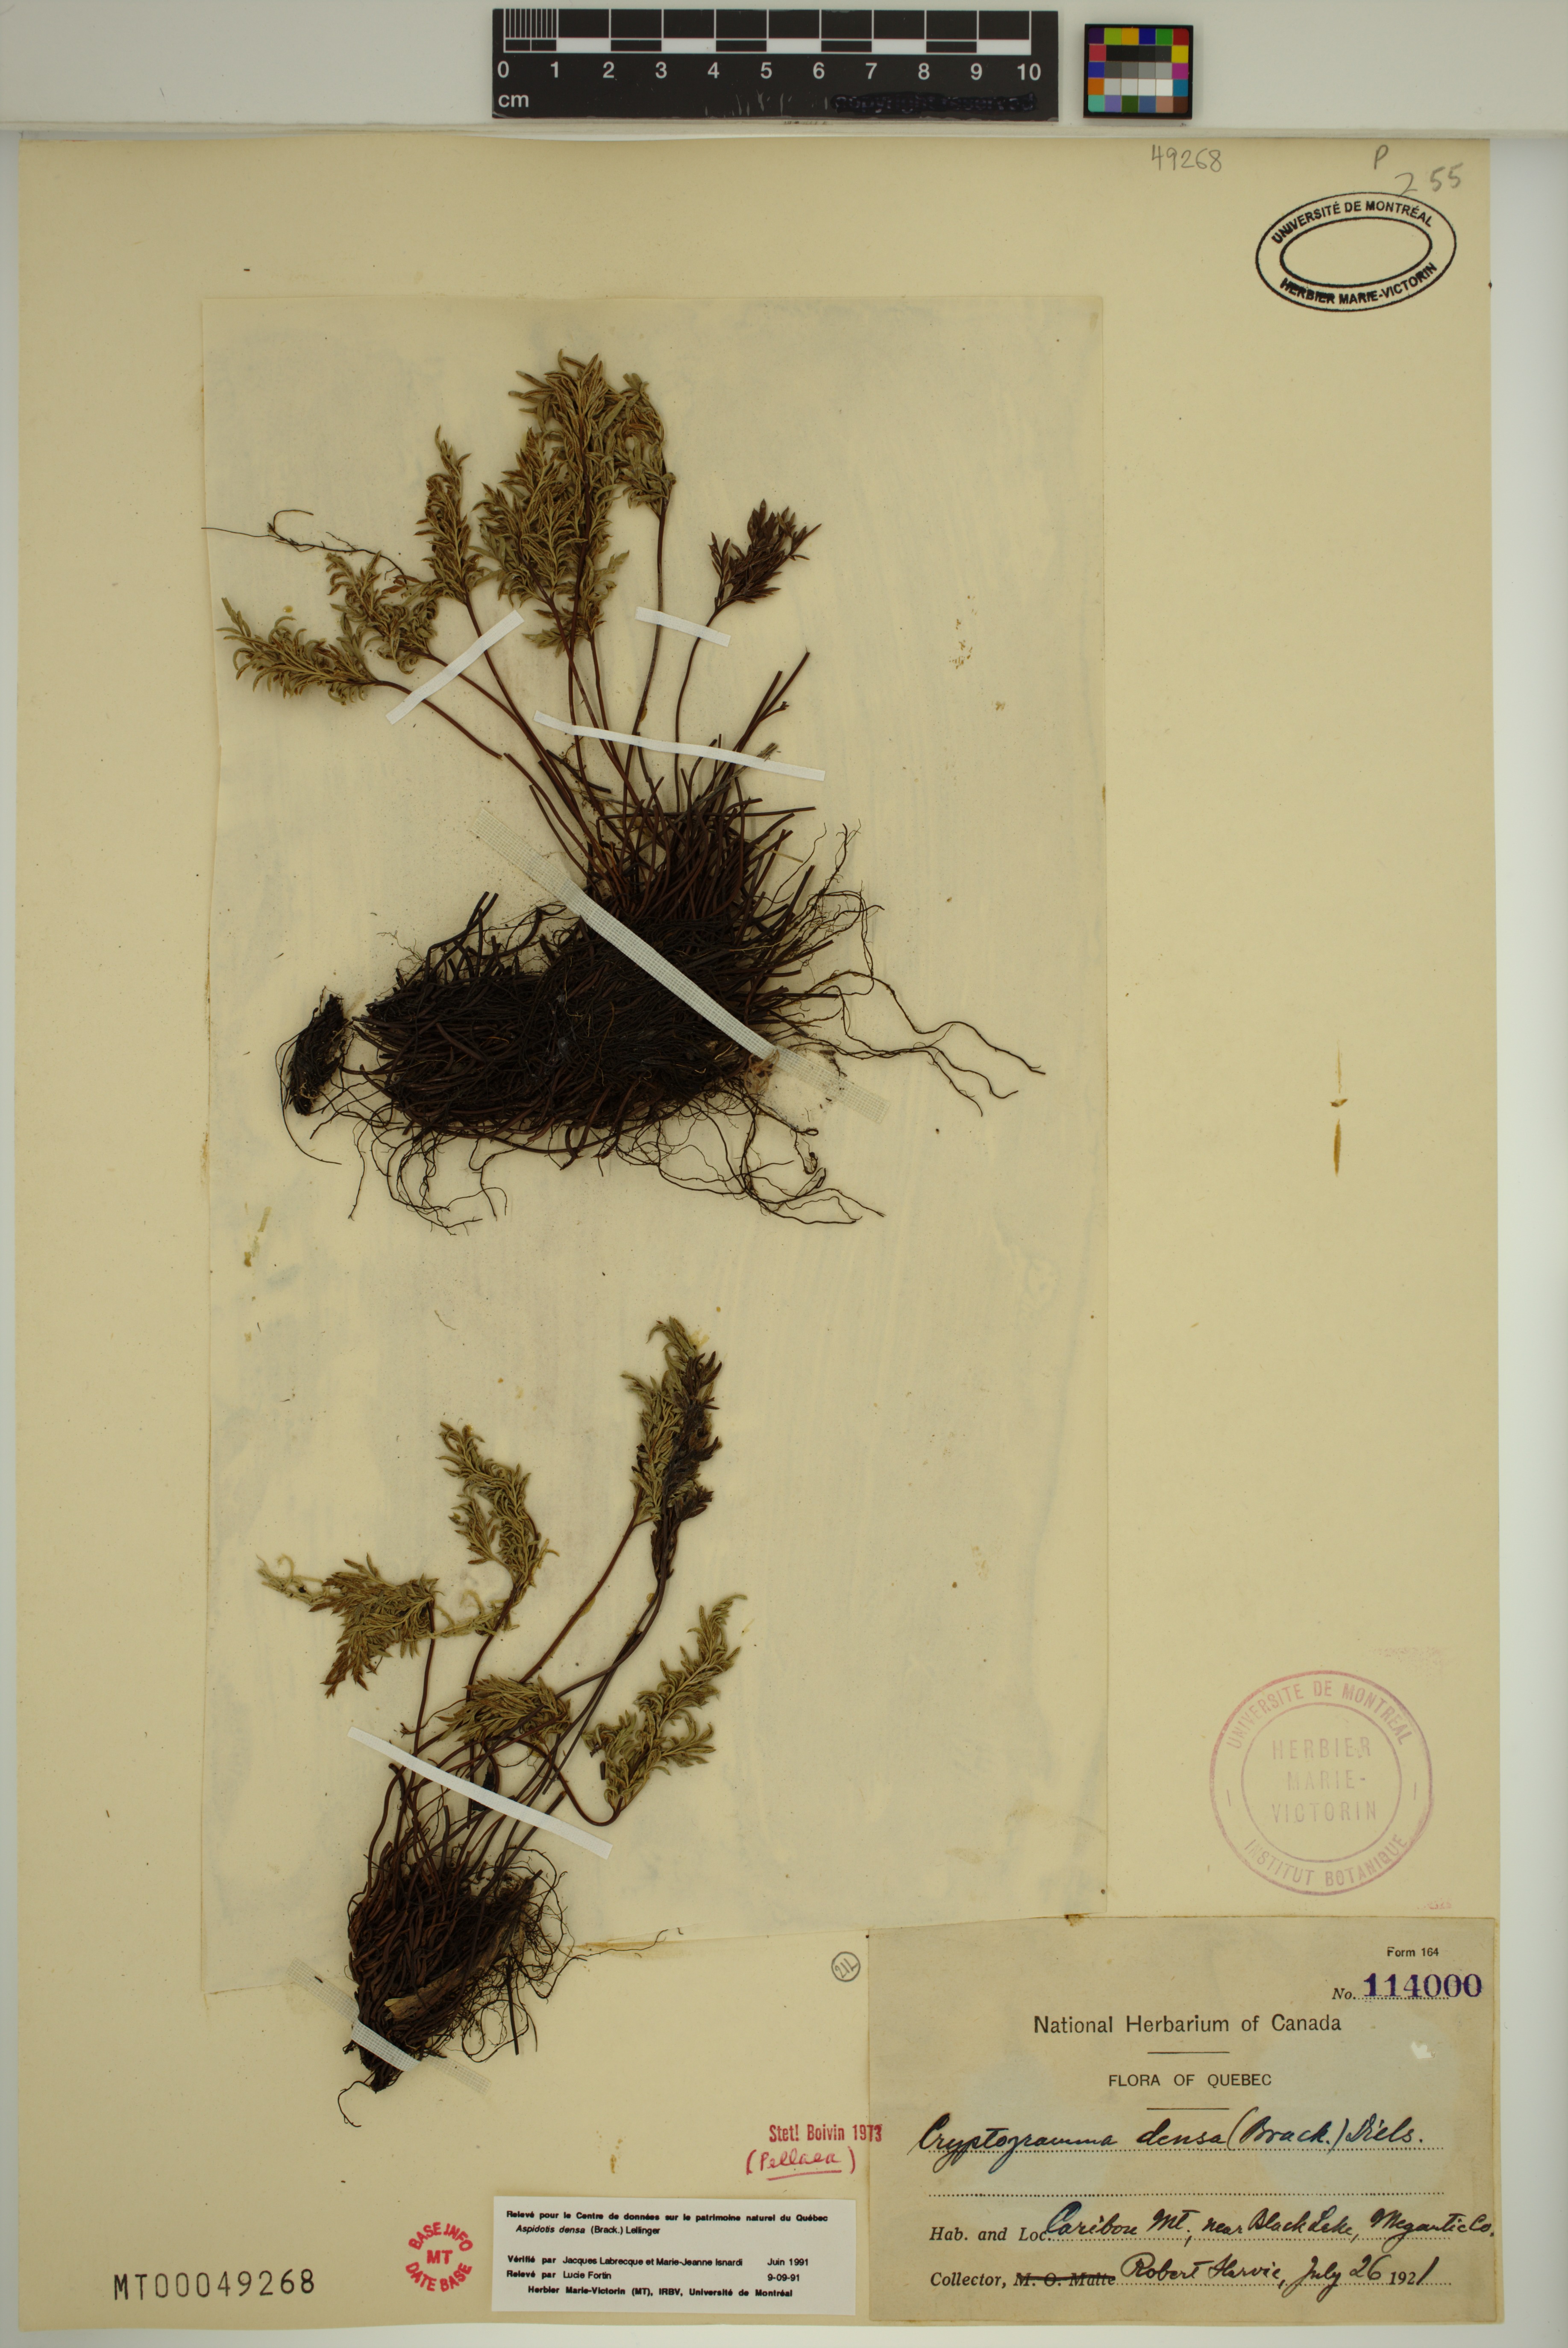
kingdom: Plantae
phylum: Tracheophyta
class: Polypodiopsida
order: Polypodiales
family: Pteridaceae
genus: Aspidotis
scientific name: Aspidotis densa
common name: Indian's dream
